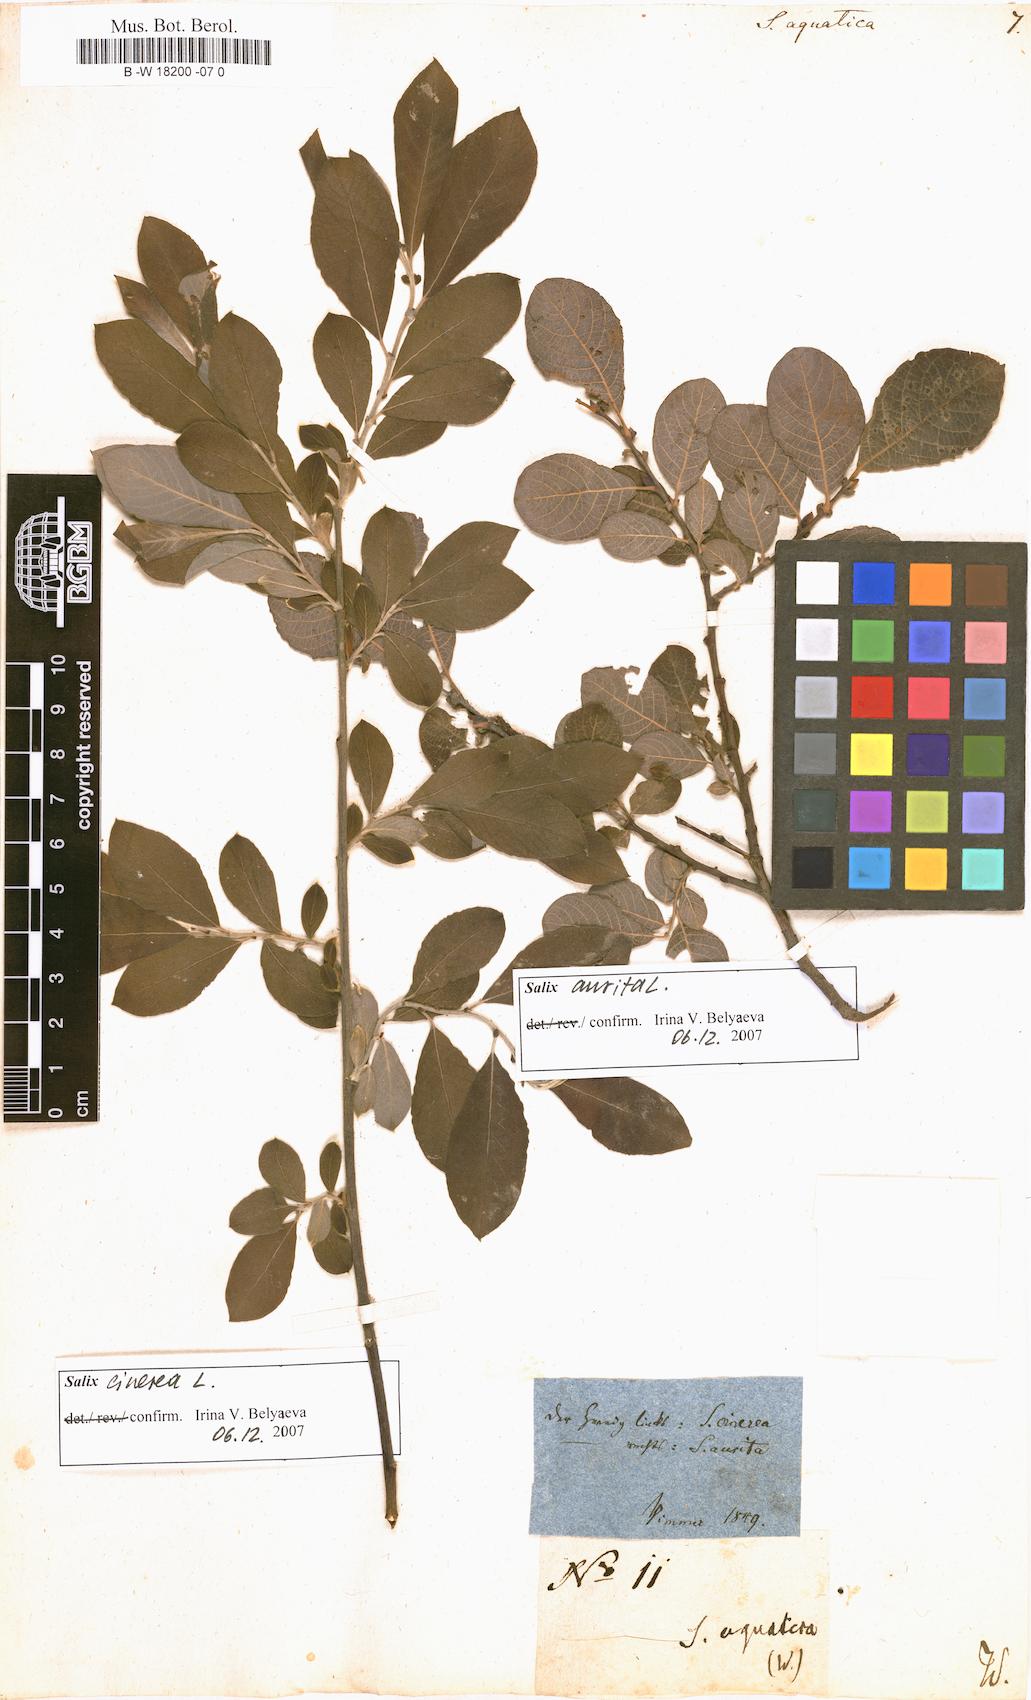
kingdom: Plantae
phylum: Tracheophyta
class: Magnoliopsida
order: Malpighiales
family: Salicaceae
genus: Salix
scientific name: Salix
